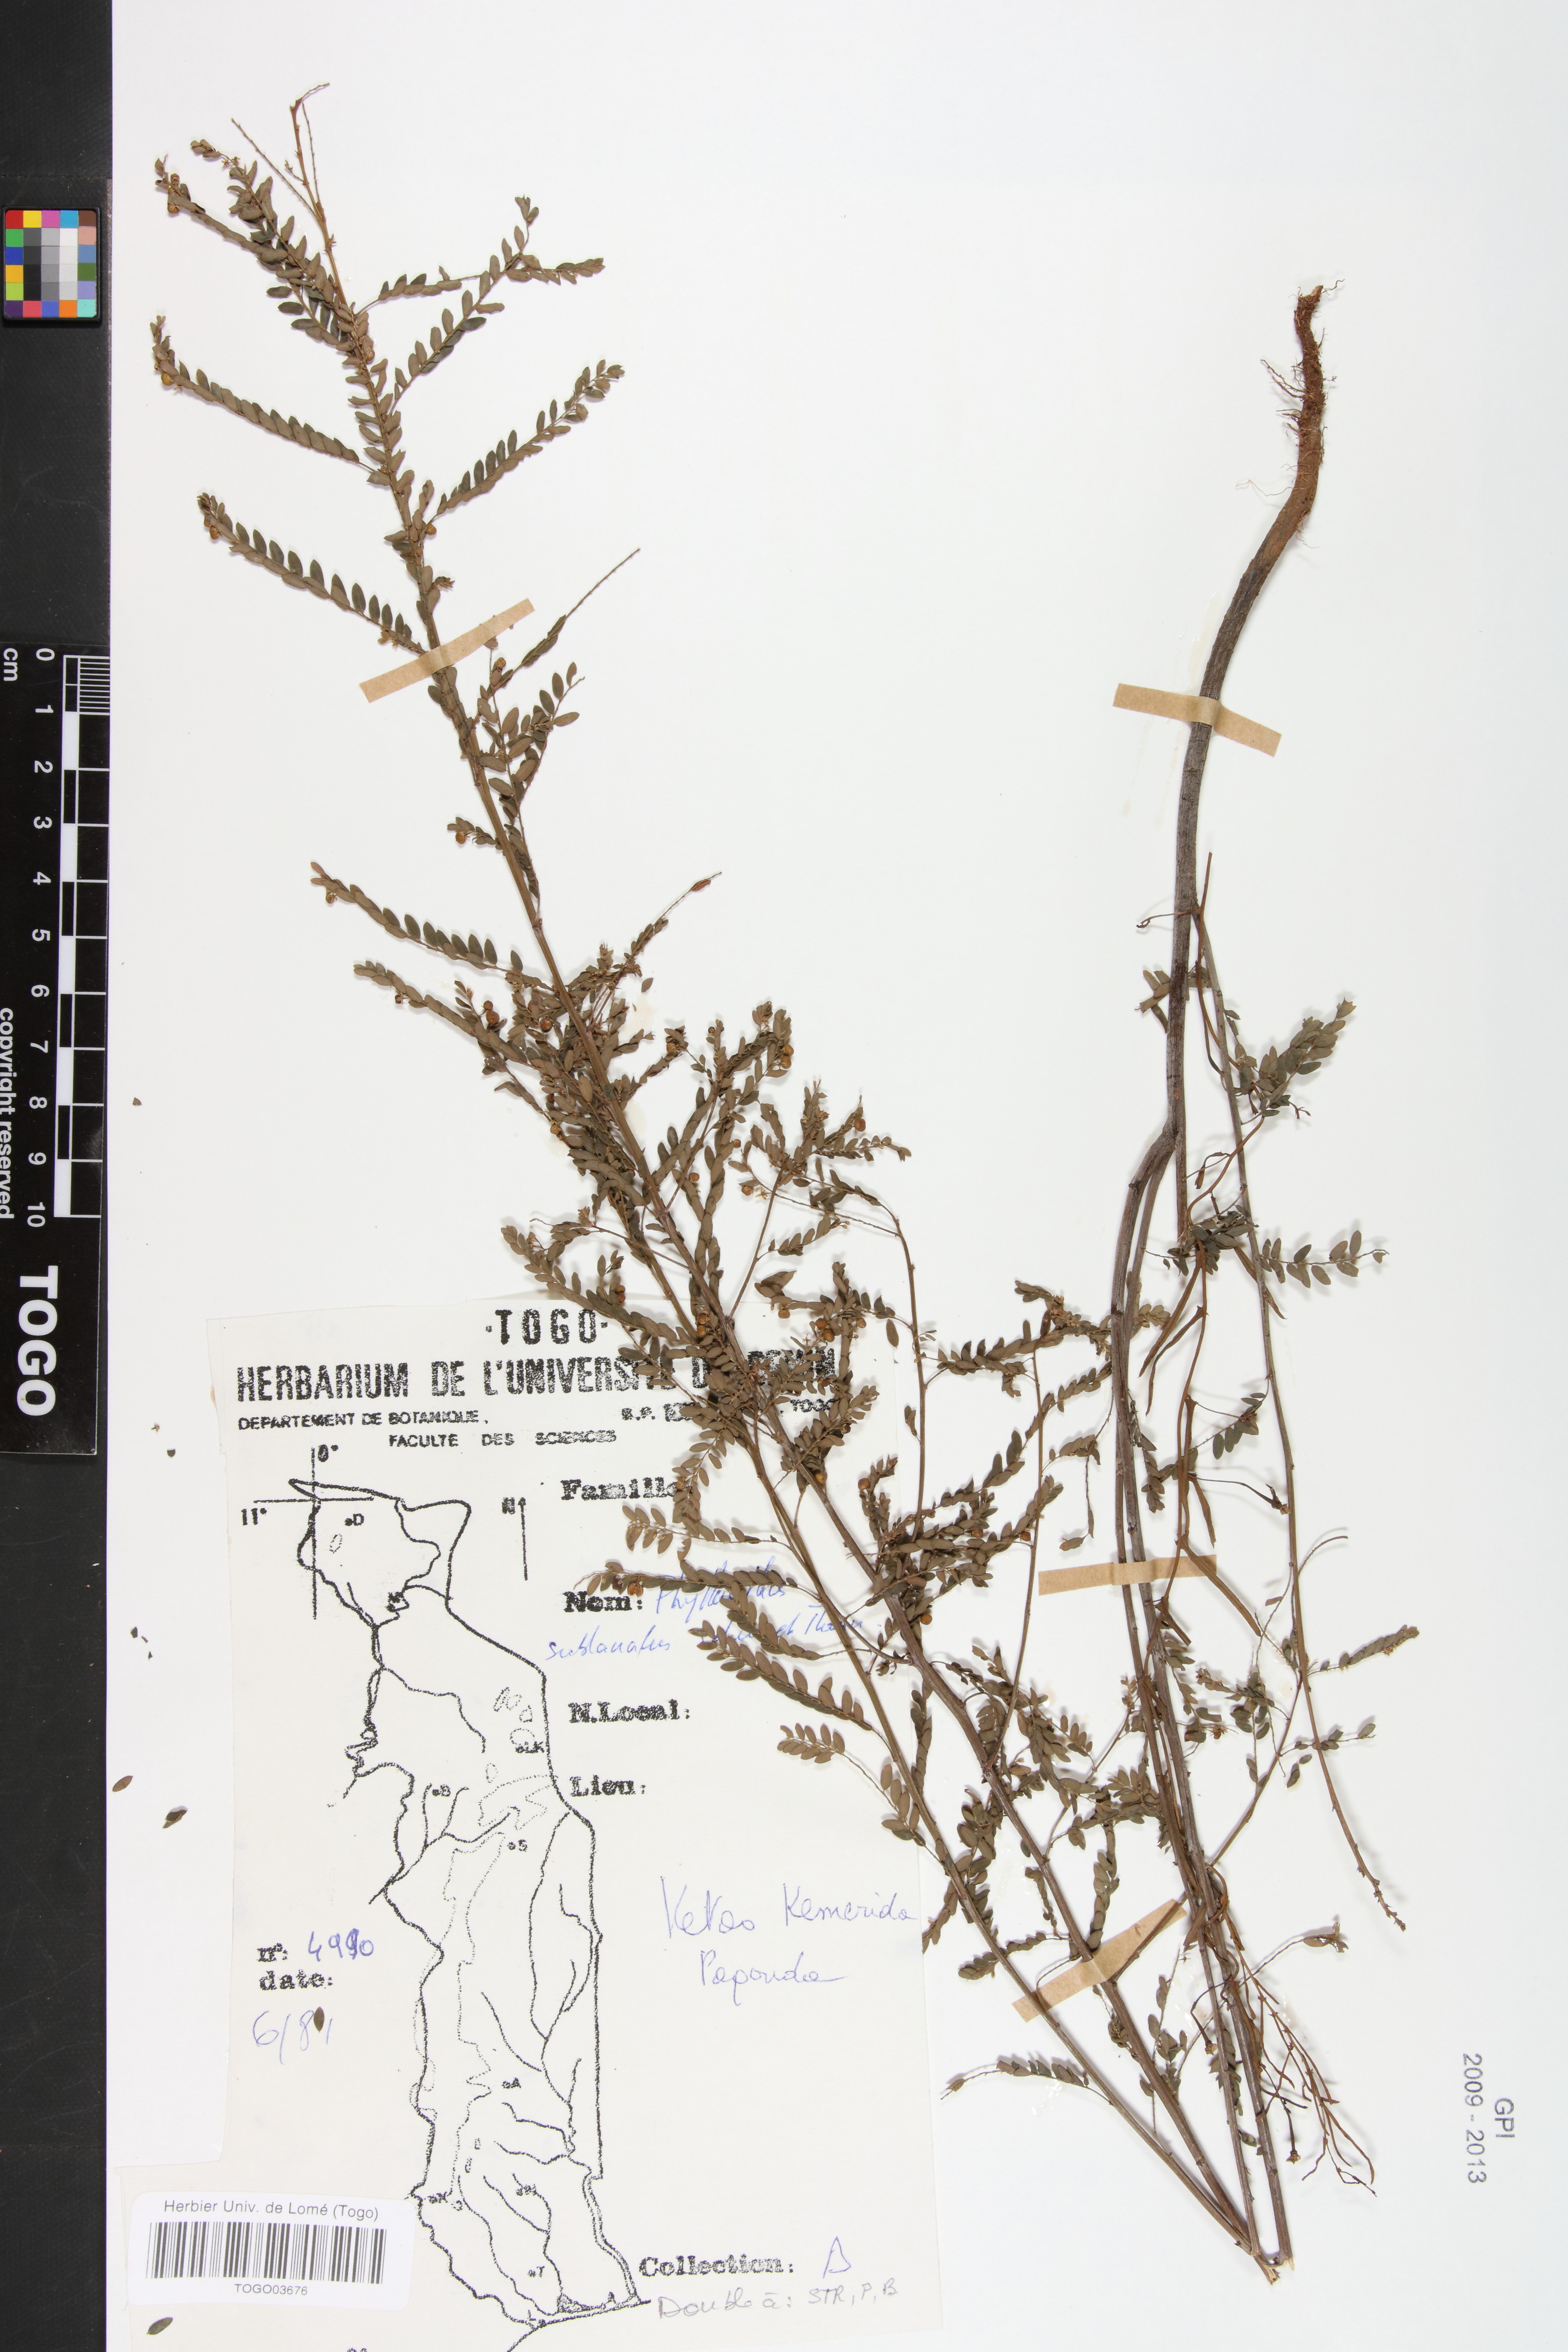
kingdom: Plantae
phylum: Tracheophyta
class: Magnoliopsida
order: Malpighiales
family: Phyllanthaceae
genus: Phyllanthus
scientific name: Phyllanthus sublanatus
